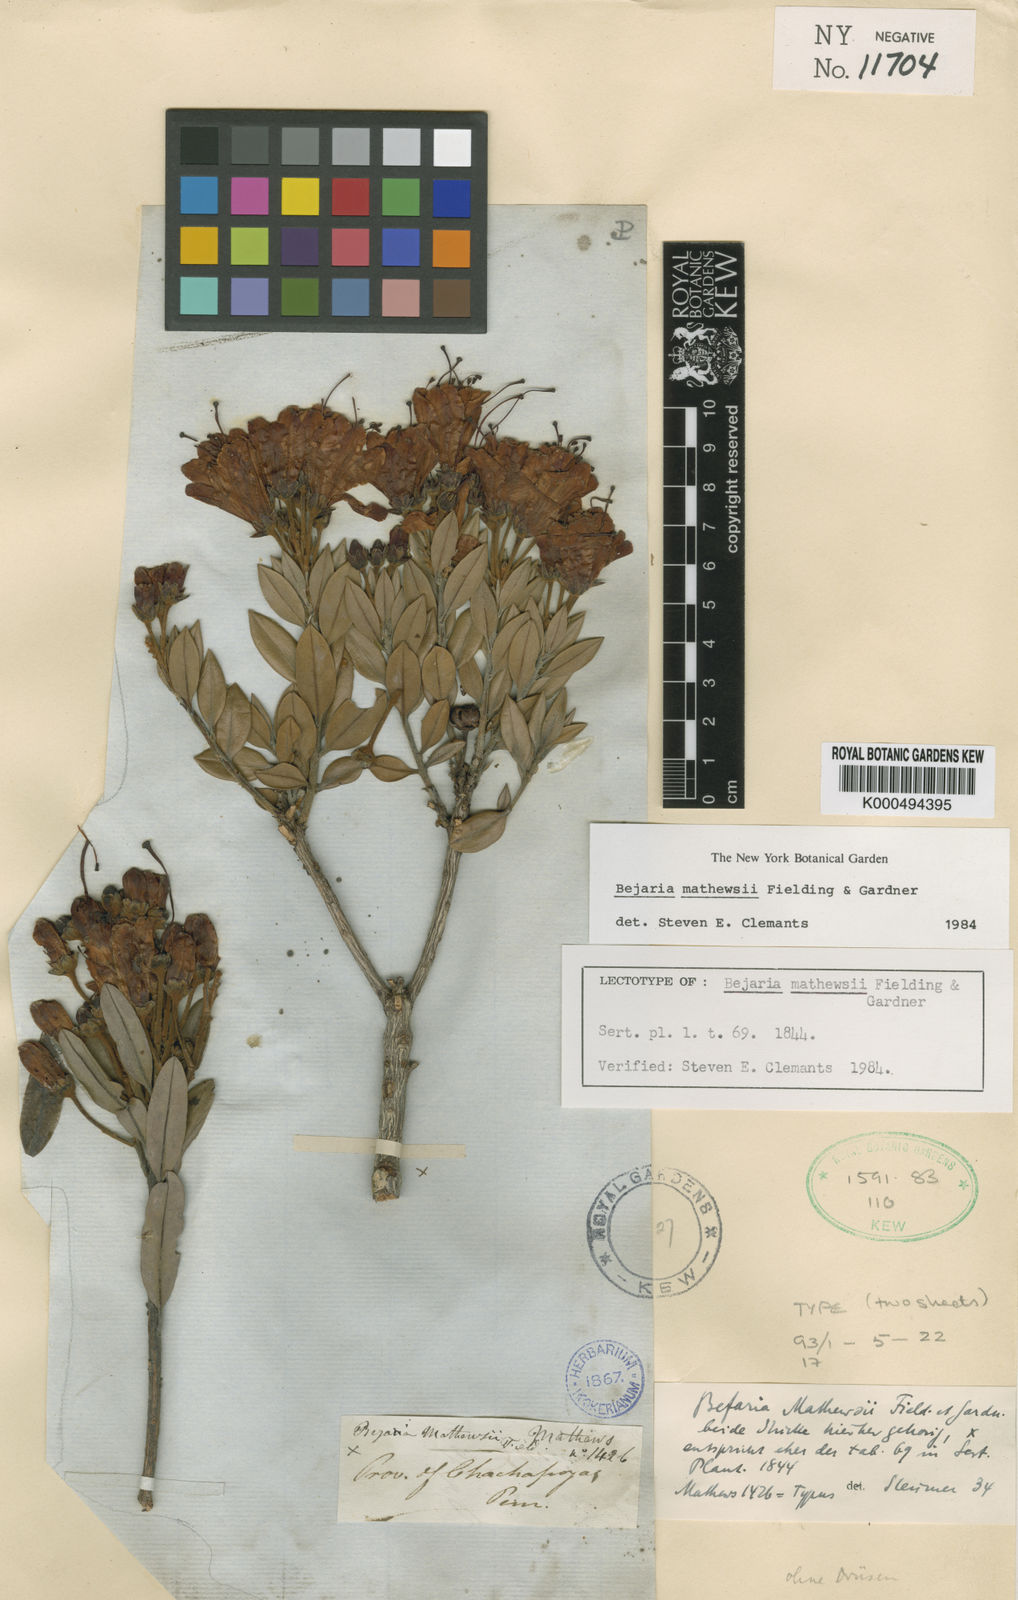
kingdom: Plantae
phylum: Tracheophyta
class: Magnoliopsida
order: Ericales
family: Ericaceae
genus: Bejaria
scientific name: Bejaria mathewsii
